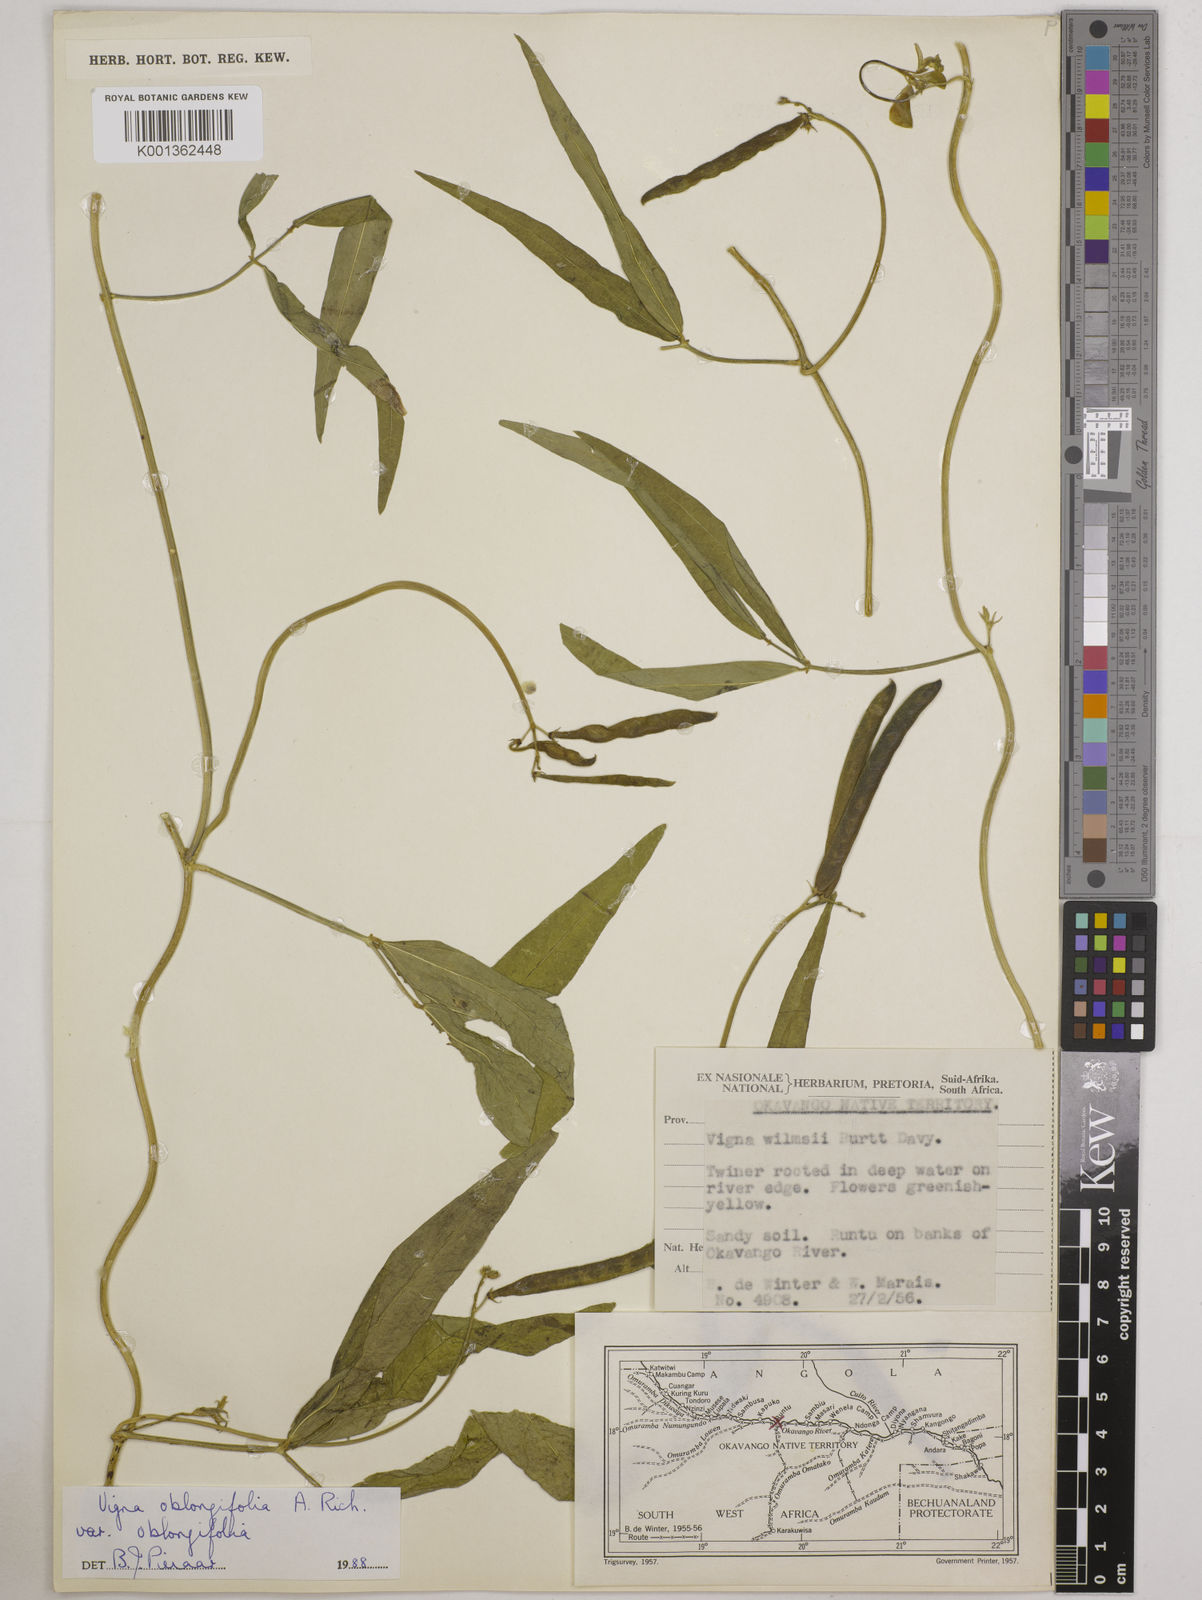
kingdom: Plantae
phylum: Tracheophyta
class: Magnoliopsida
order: Fabales
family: Fabaceae
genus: Vigna
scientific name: Vigna oblongifolia
